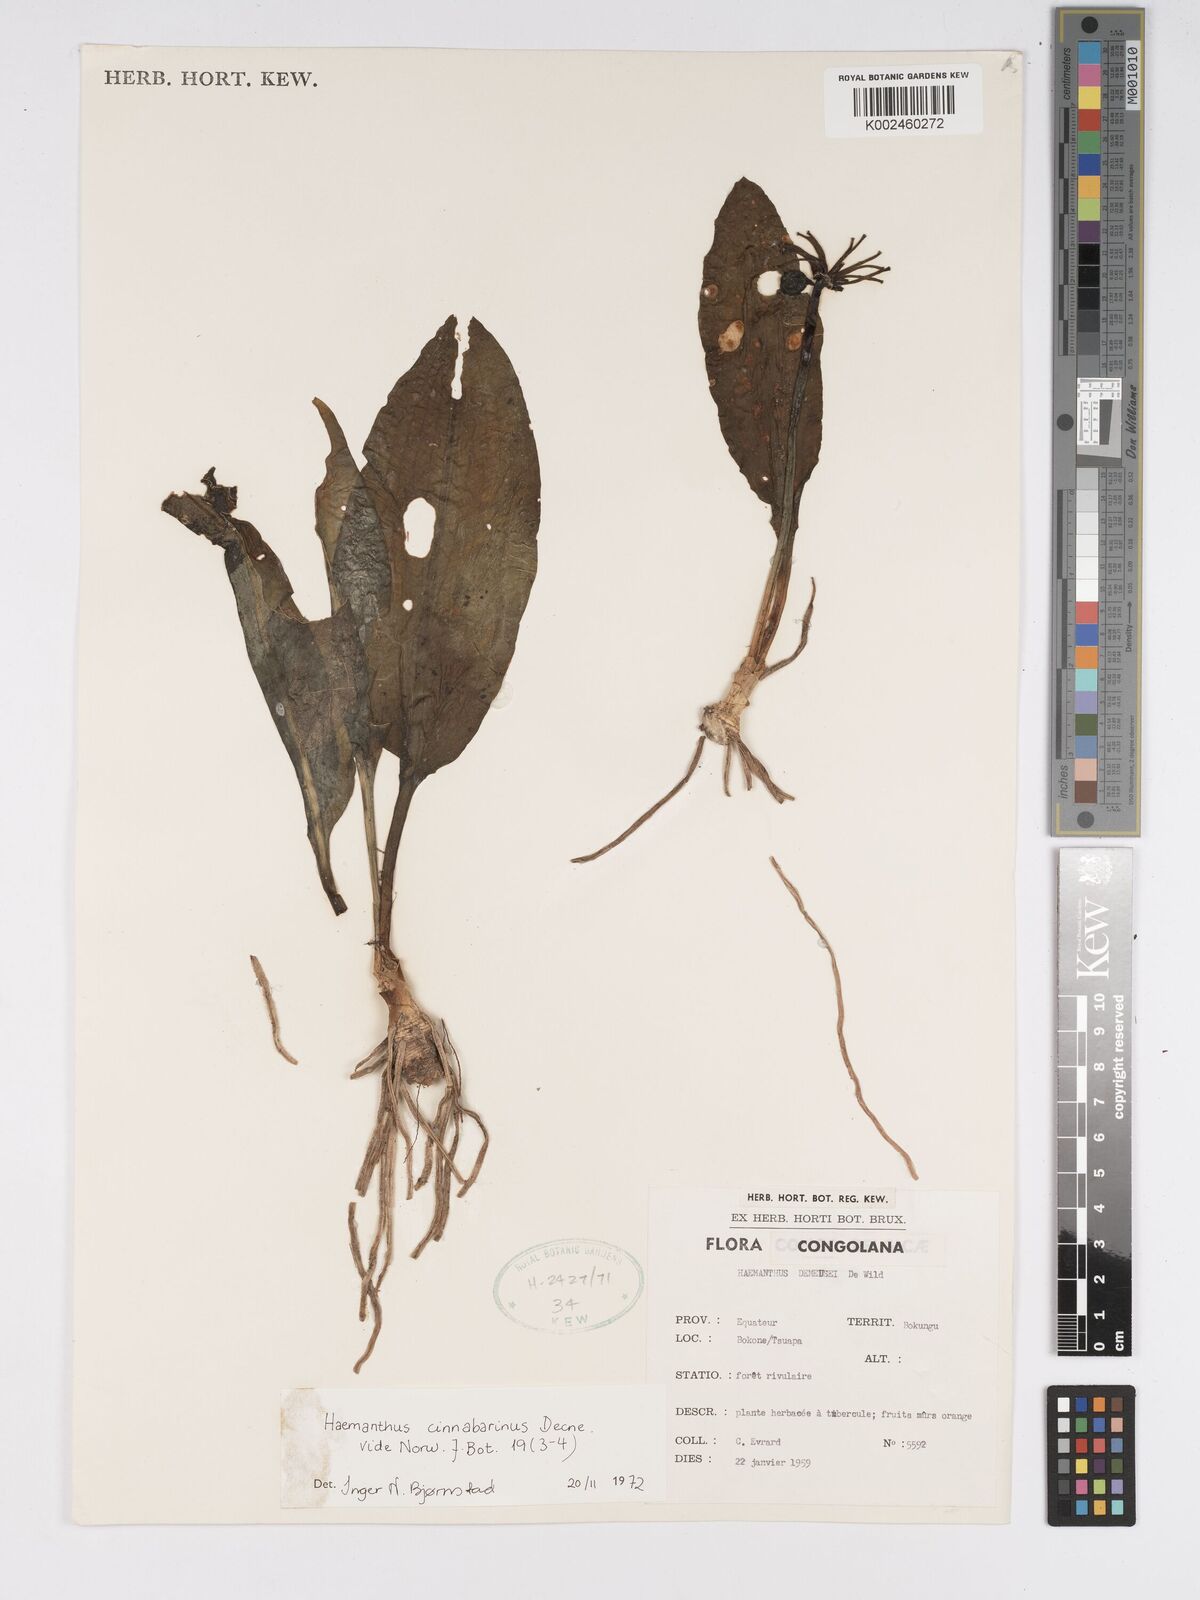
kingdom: Plantae
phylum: Tracheophyta
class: Liliopsida
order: Asparagales
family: Amaryllidaceae
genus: Scadoxus
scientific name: Scadoxus cinnabarinus
